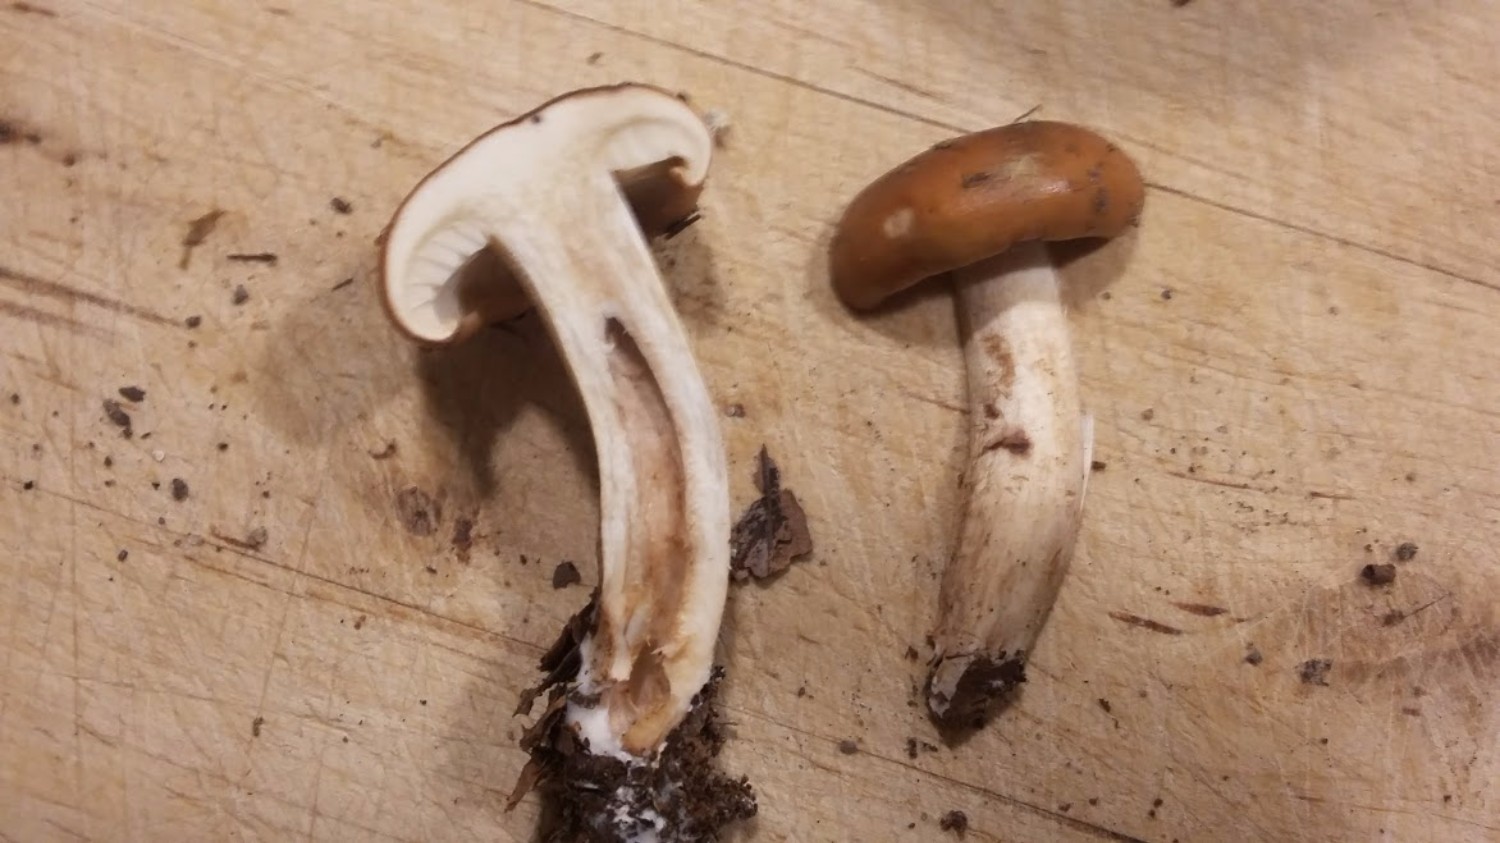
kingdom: Fungi
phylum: Basidiomycota
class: Agaricomycetes
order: Agaricales
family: Tricholomataceae
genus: Tricholoma
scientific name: Tricholoma ustale
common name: sveden ridderhat
